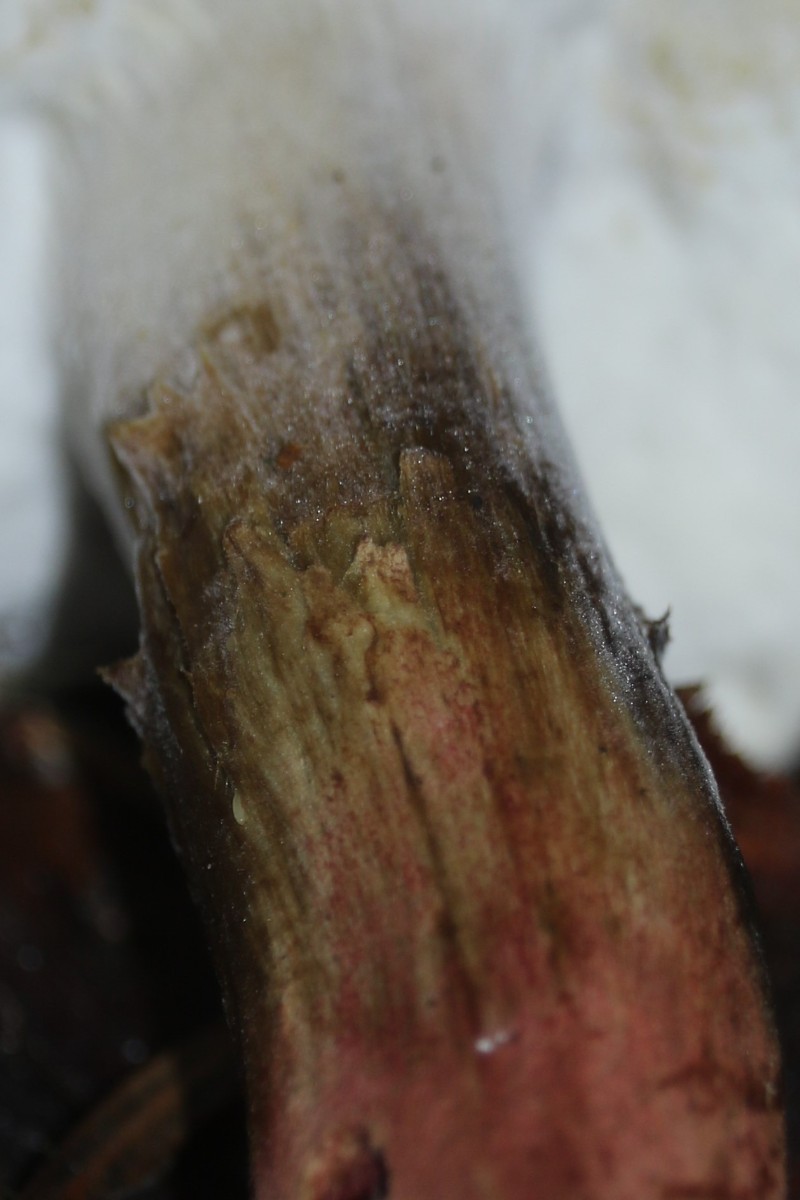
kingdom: Fungi
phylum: Ascomycota
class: Sordariomycetes
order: Hypocreales
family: Hypocreaceae
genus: Hypomyces
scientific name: Hypomyces microspermus
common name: dværgrørhat-snylteskorpe
